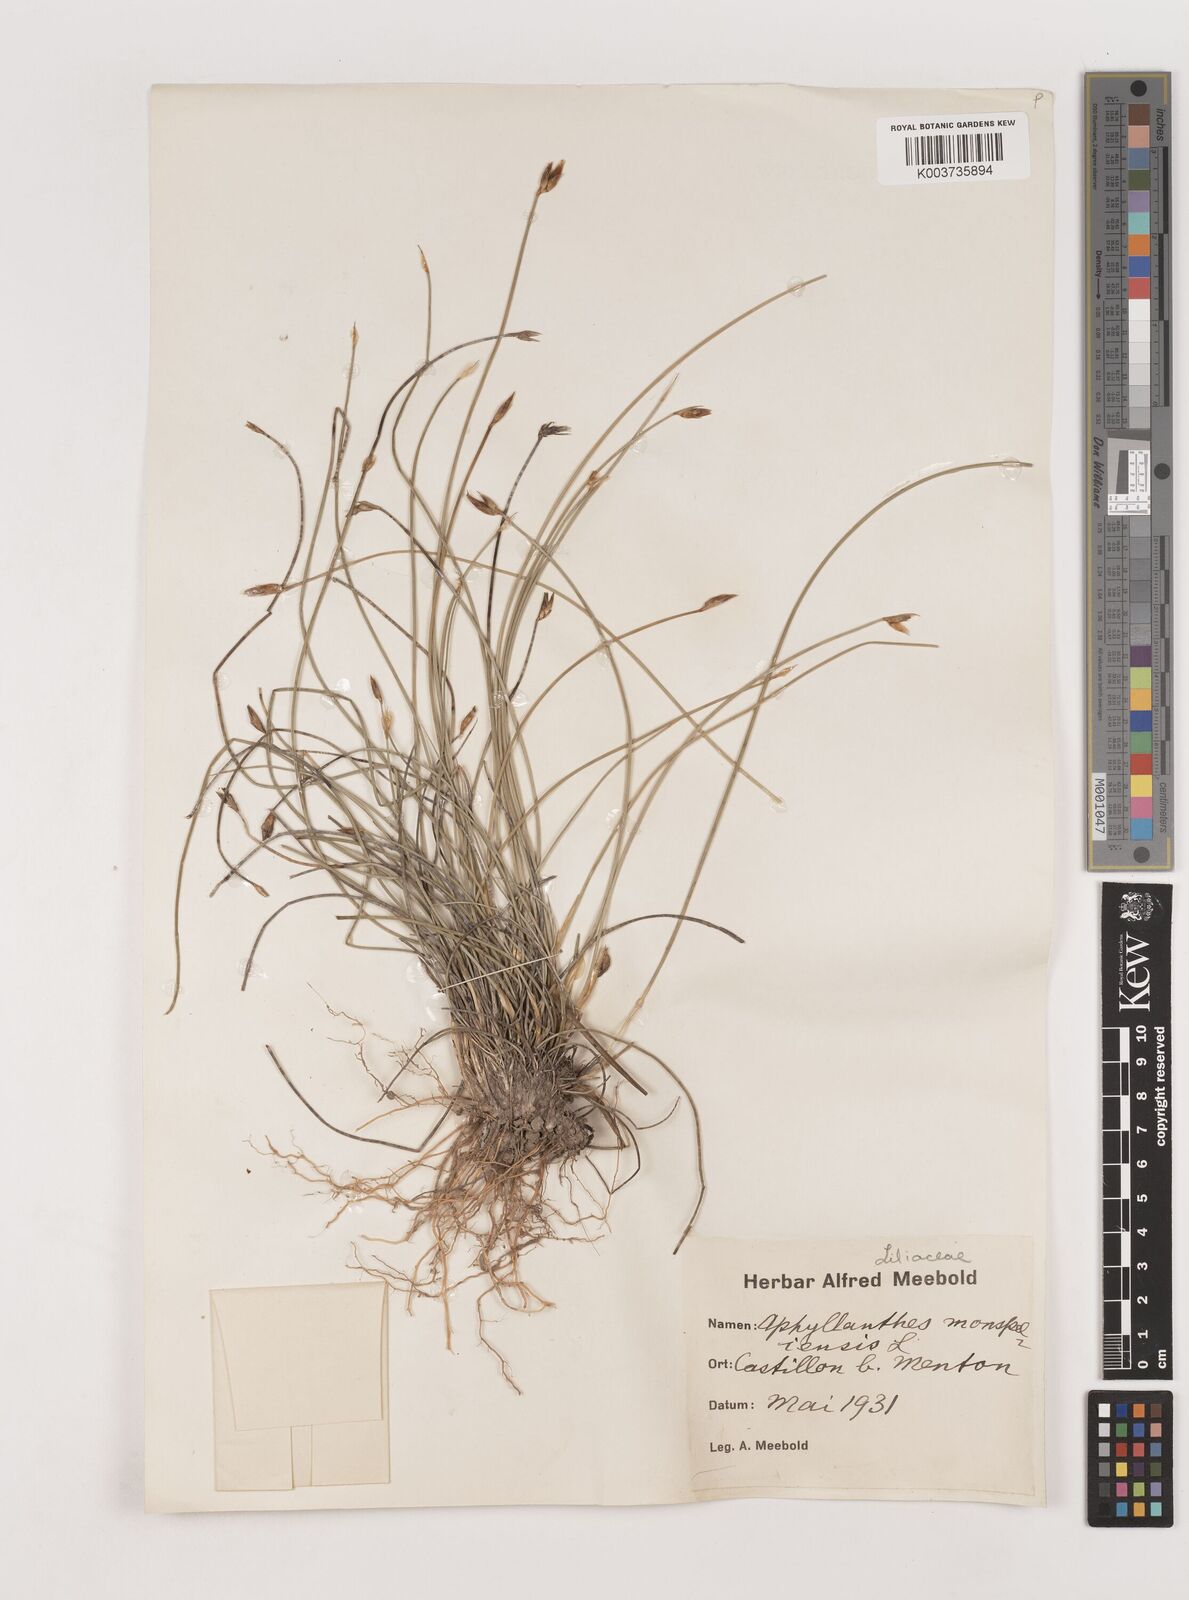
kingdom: Plantae
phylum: Tracheophyta
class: Liliopsida
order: Asparagales
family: Asparagaceae
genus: Aphyllanthes
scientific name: Aphyllanthes monspeliensis
